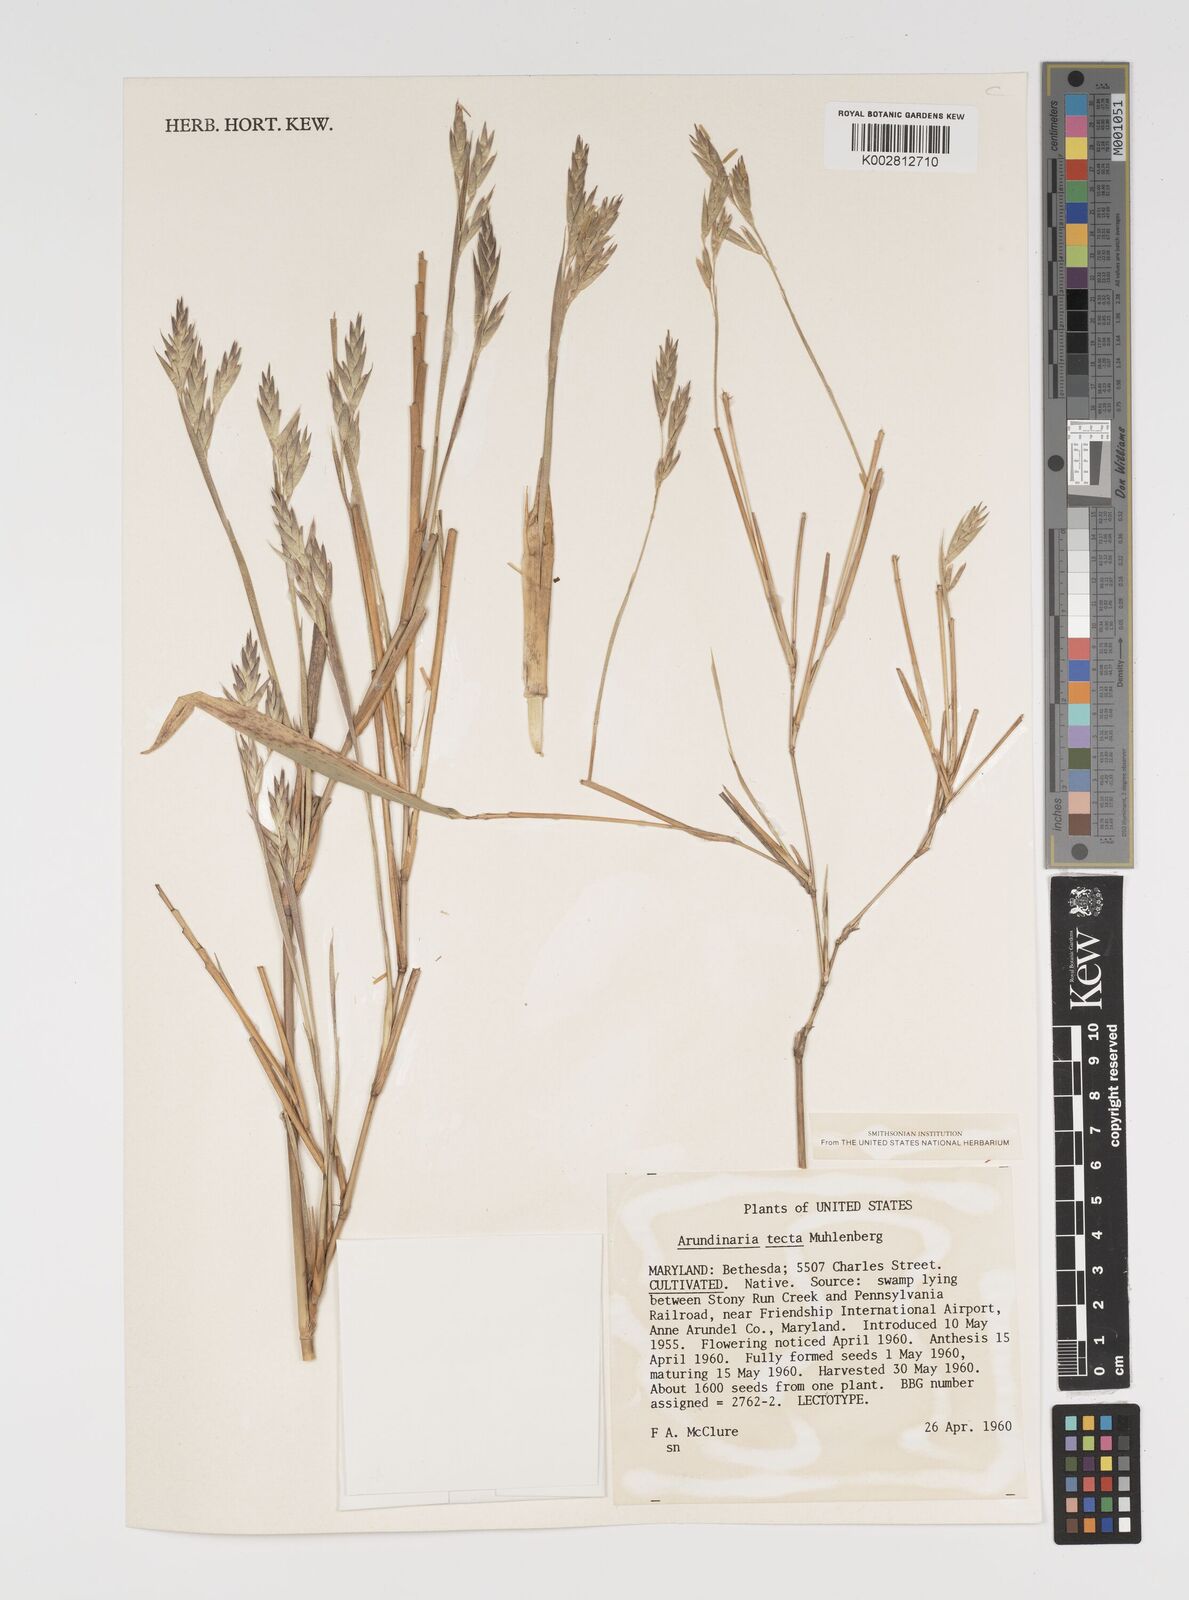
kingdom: Plantae
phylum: Tracheophyta
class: Liliopsida
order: Poales
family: Poaceae
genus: Arundinaria
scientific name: Arundinaria tecta
